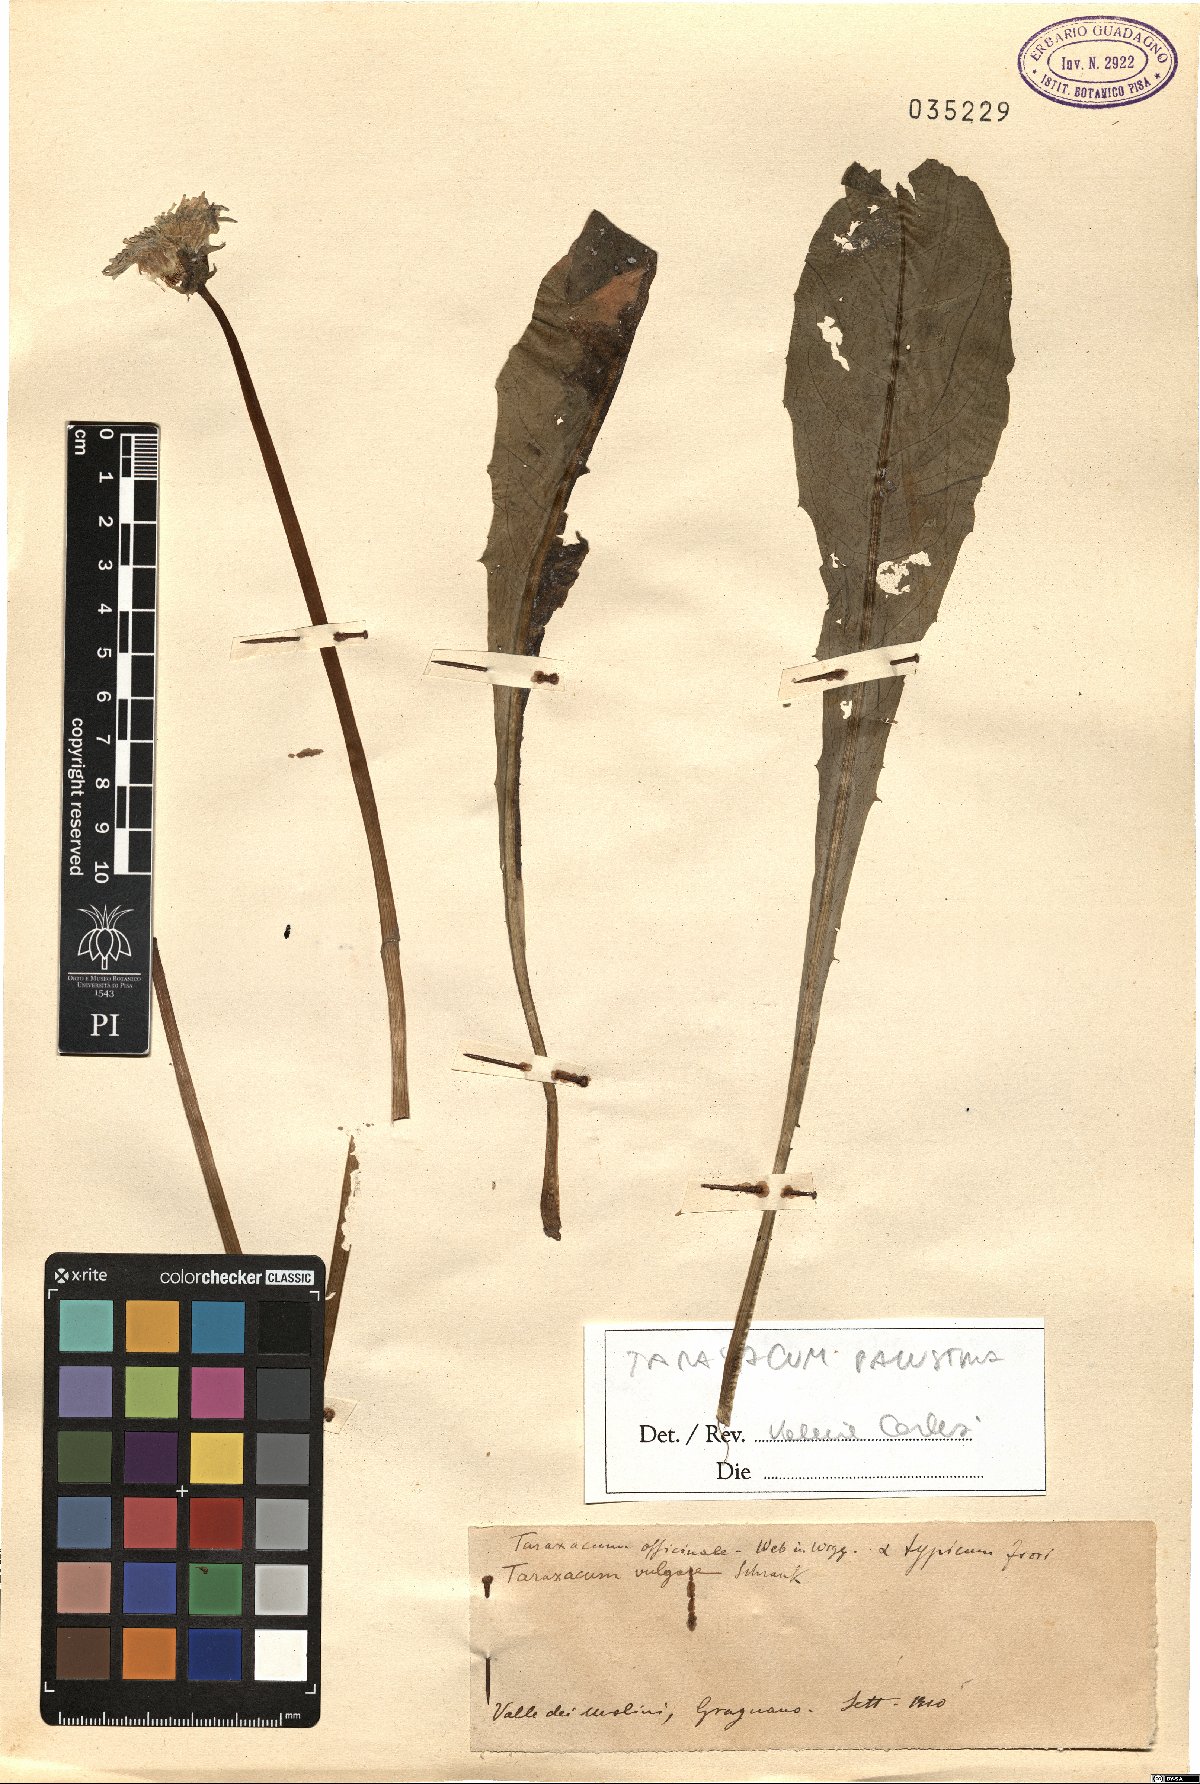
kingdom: Plantae
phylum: Tracheophyta
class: Magnoliopsida
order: Asterales
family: Asteraceae
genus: Taraxacum
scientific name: Taraxacum palustria
